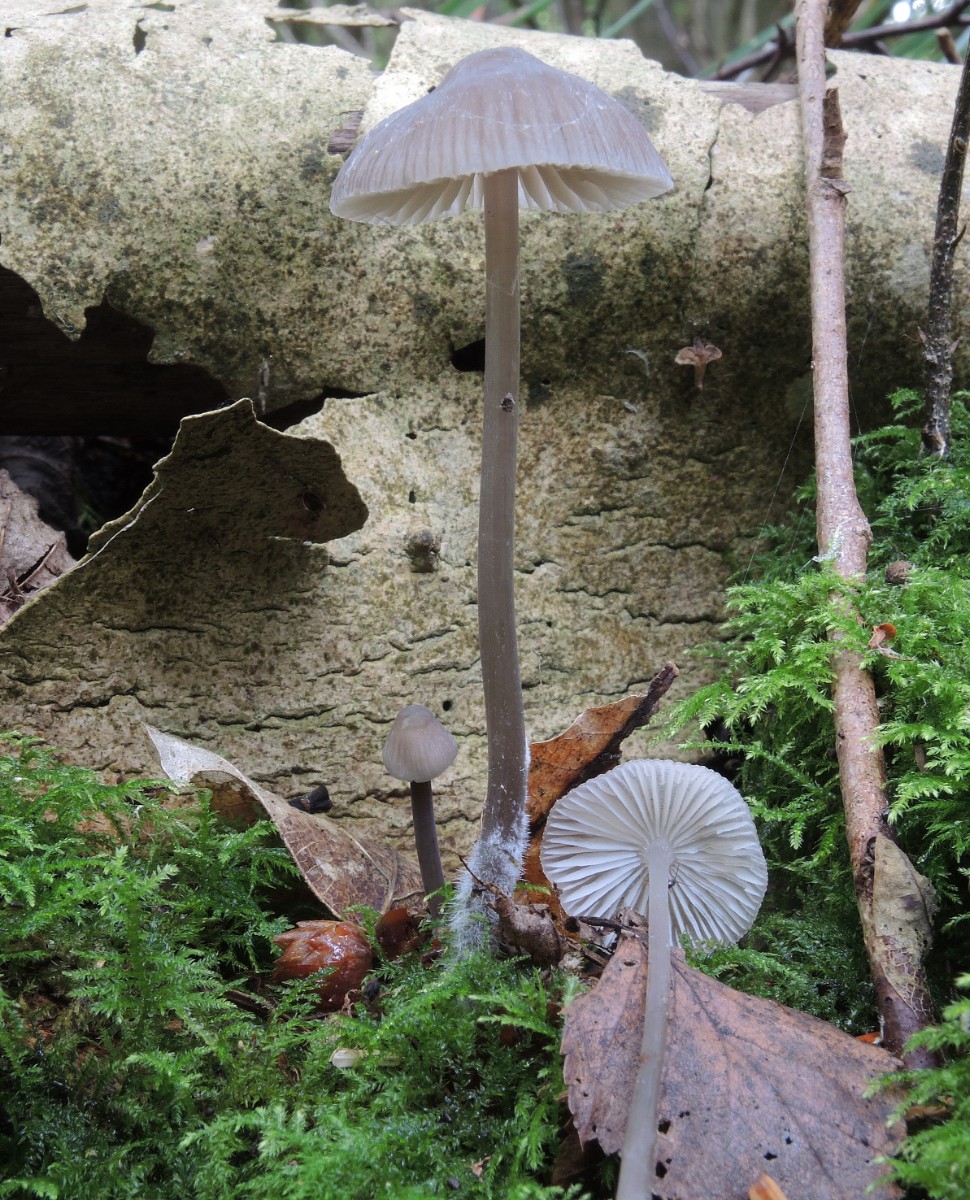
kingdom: Fungi
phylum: Basidiomycota
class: Agaricomycetes
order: Agaricales
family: Mycenaceae
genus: Mycena
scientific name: Mycena abramsii
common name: sommer-huesvamp
